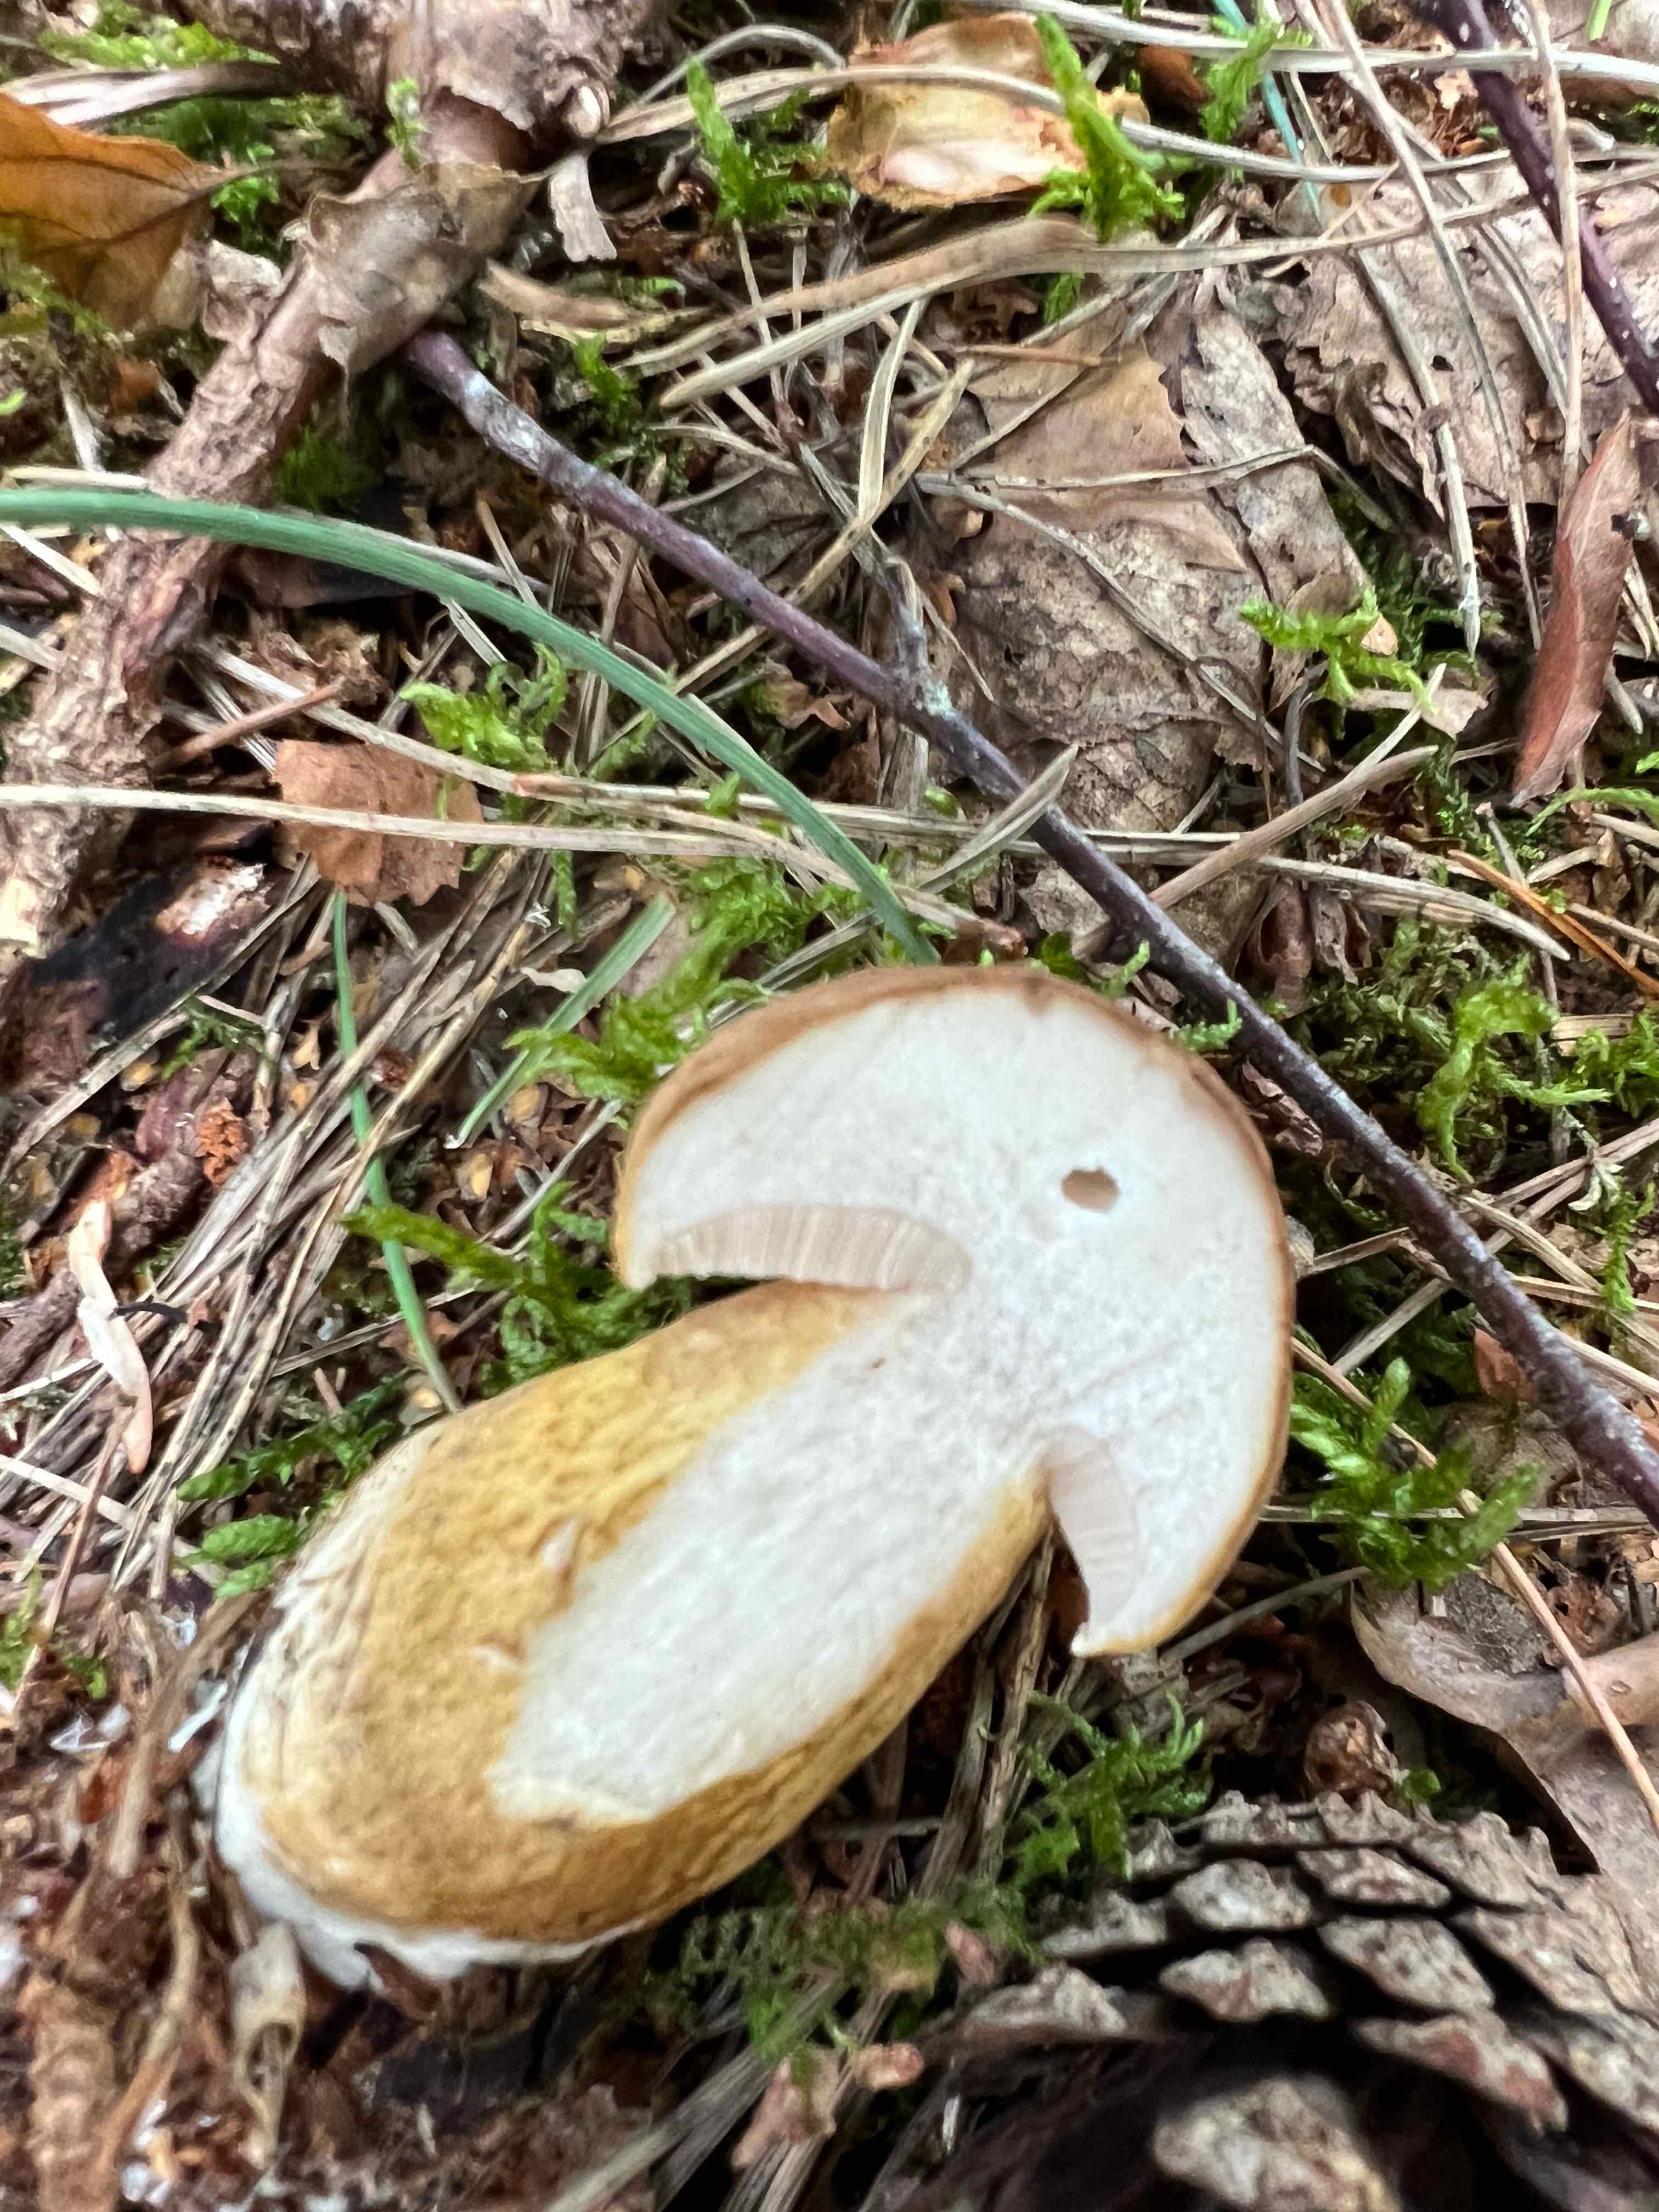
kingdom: Fungi
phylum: Basidiomycota
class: Agaricomycetes
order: Boletales
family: Boletaceae
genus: Tylopilus
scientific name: Tylopilus felleus
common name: galderørhat
